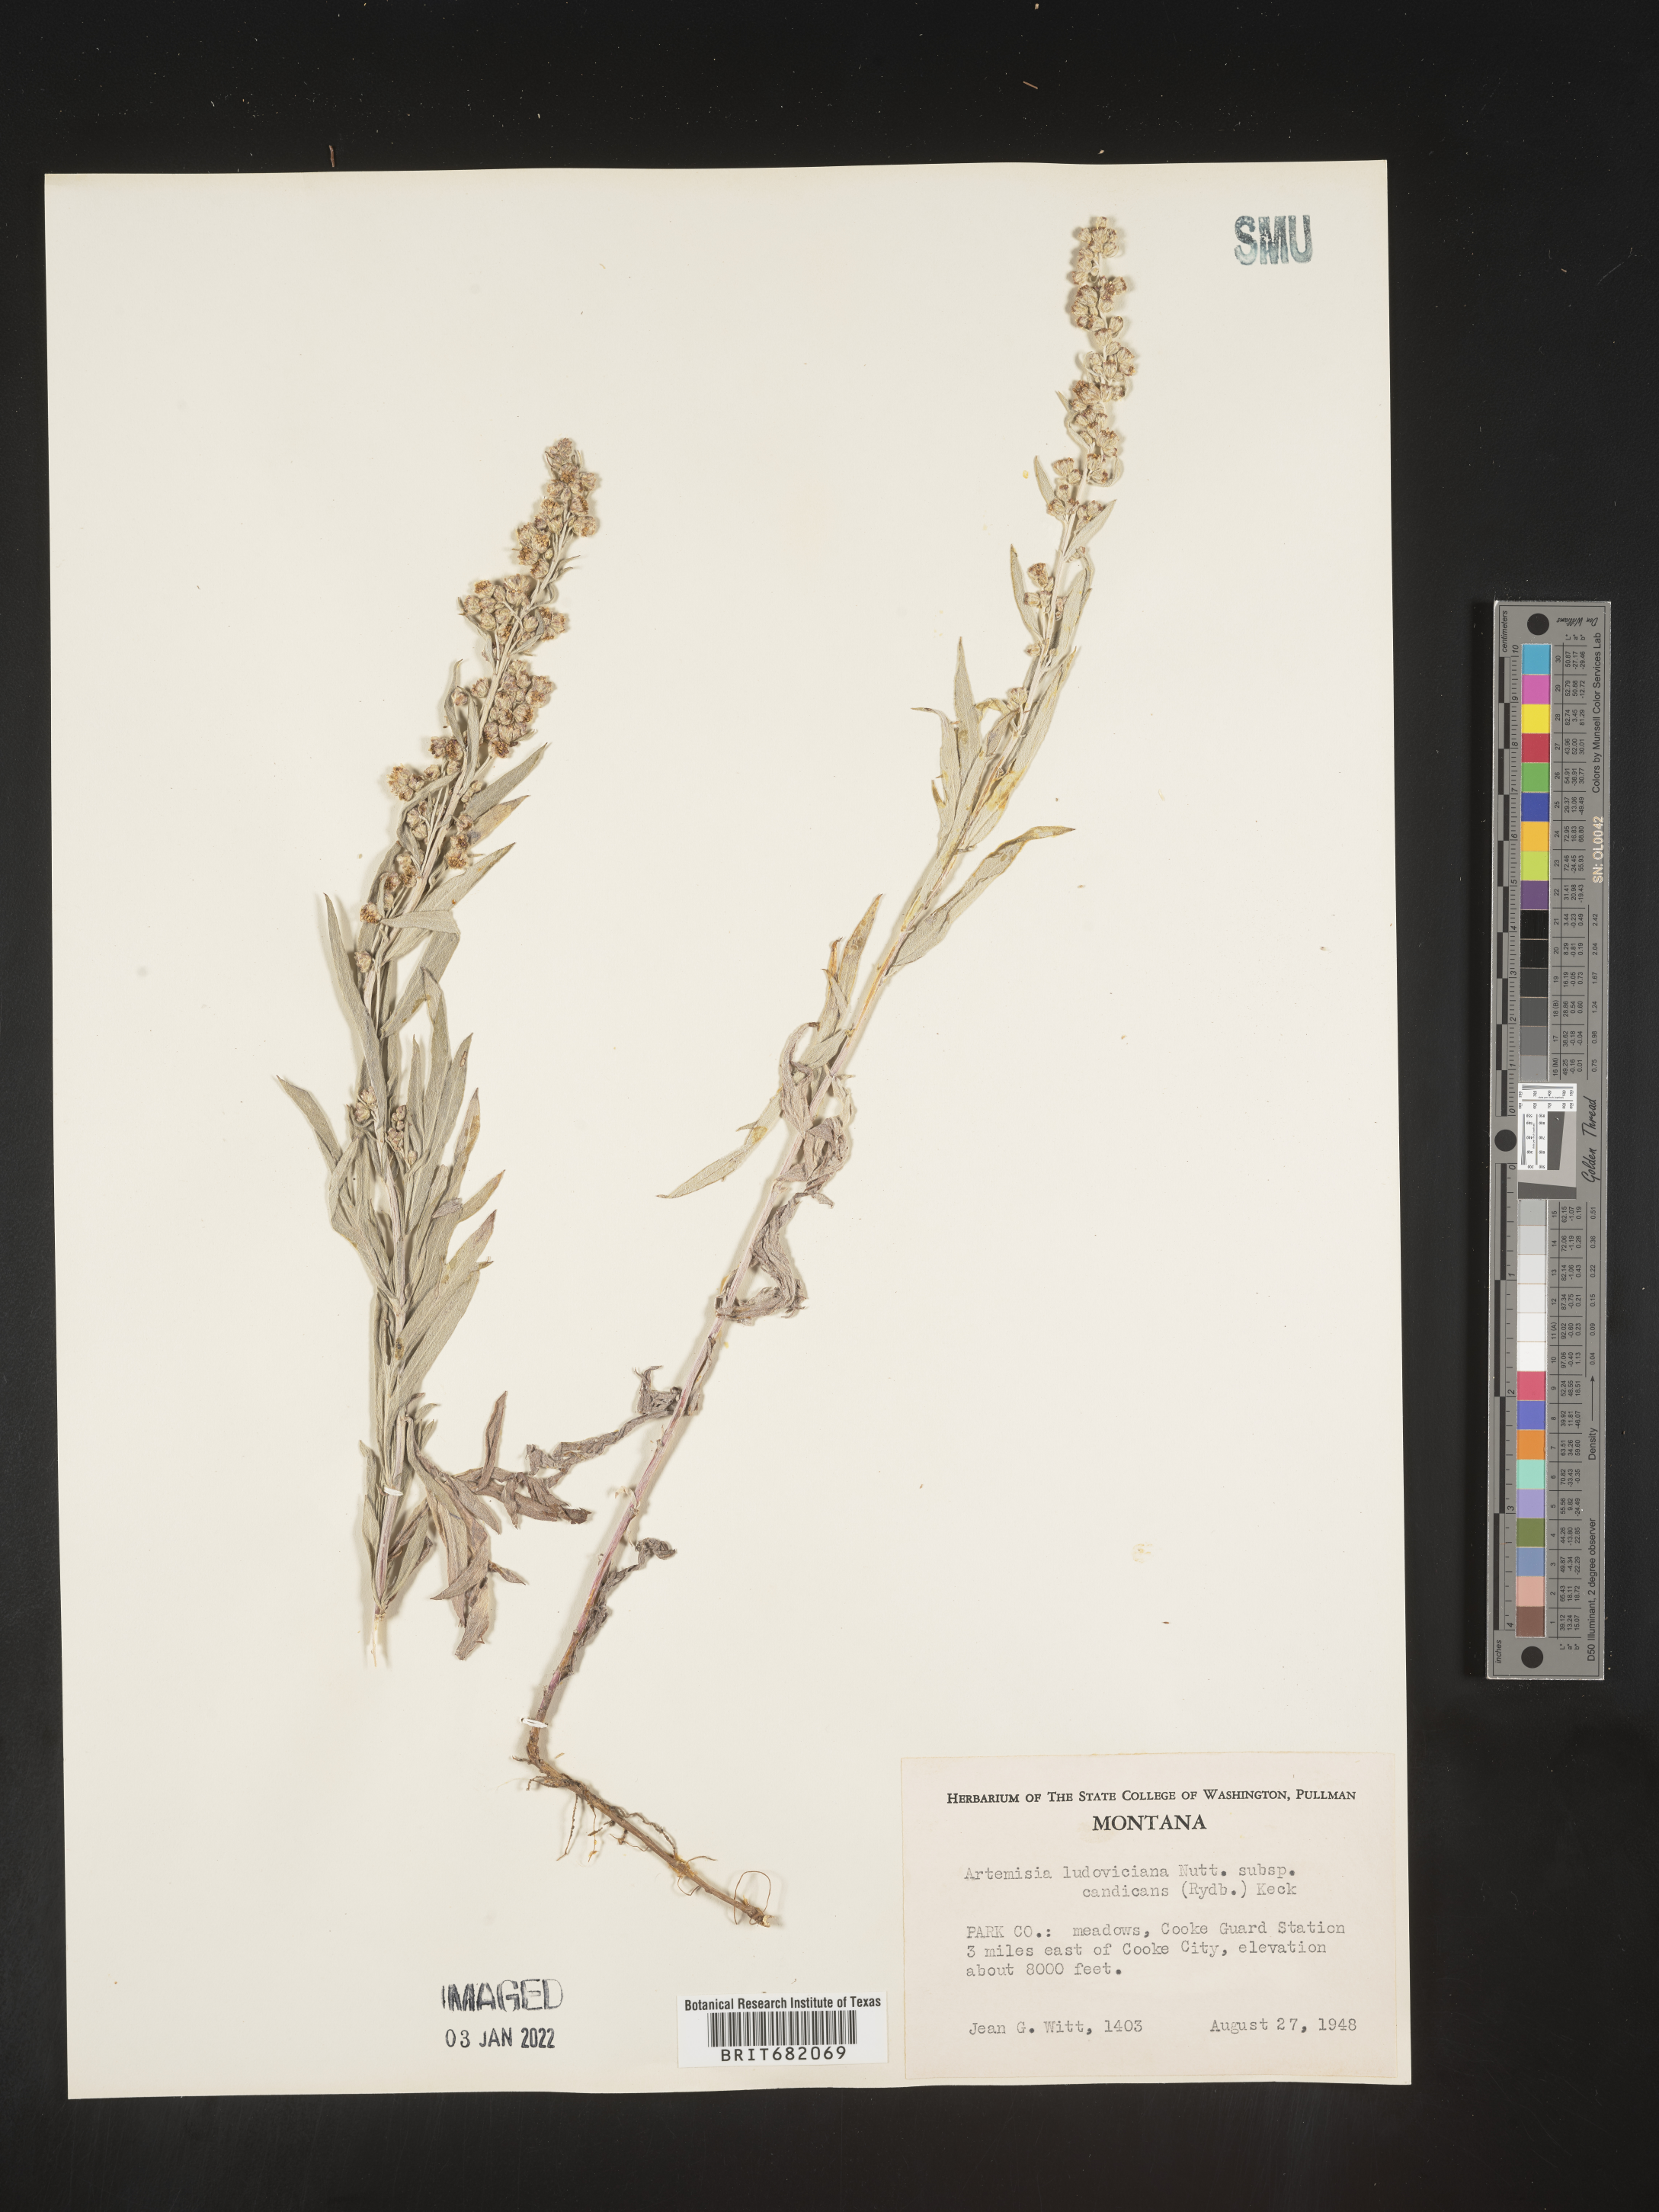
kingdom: Plantae
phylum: Tracheophyta
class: Magnoliopsida
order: Asterales
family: Asteraceae
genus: Artemisia
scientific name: Artemisia ludoviciana
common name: Western mugwort
